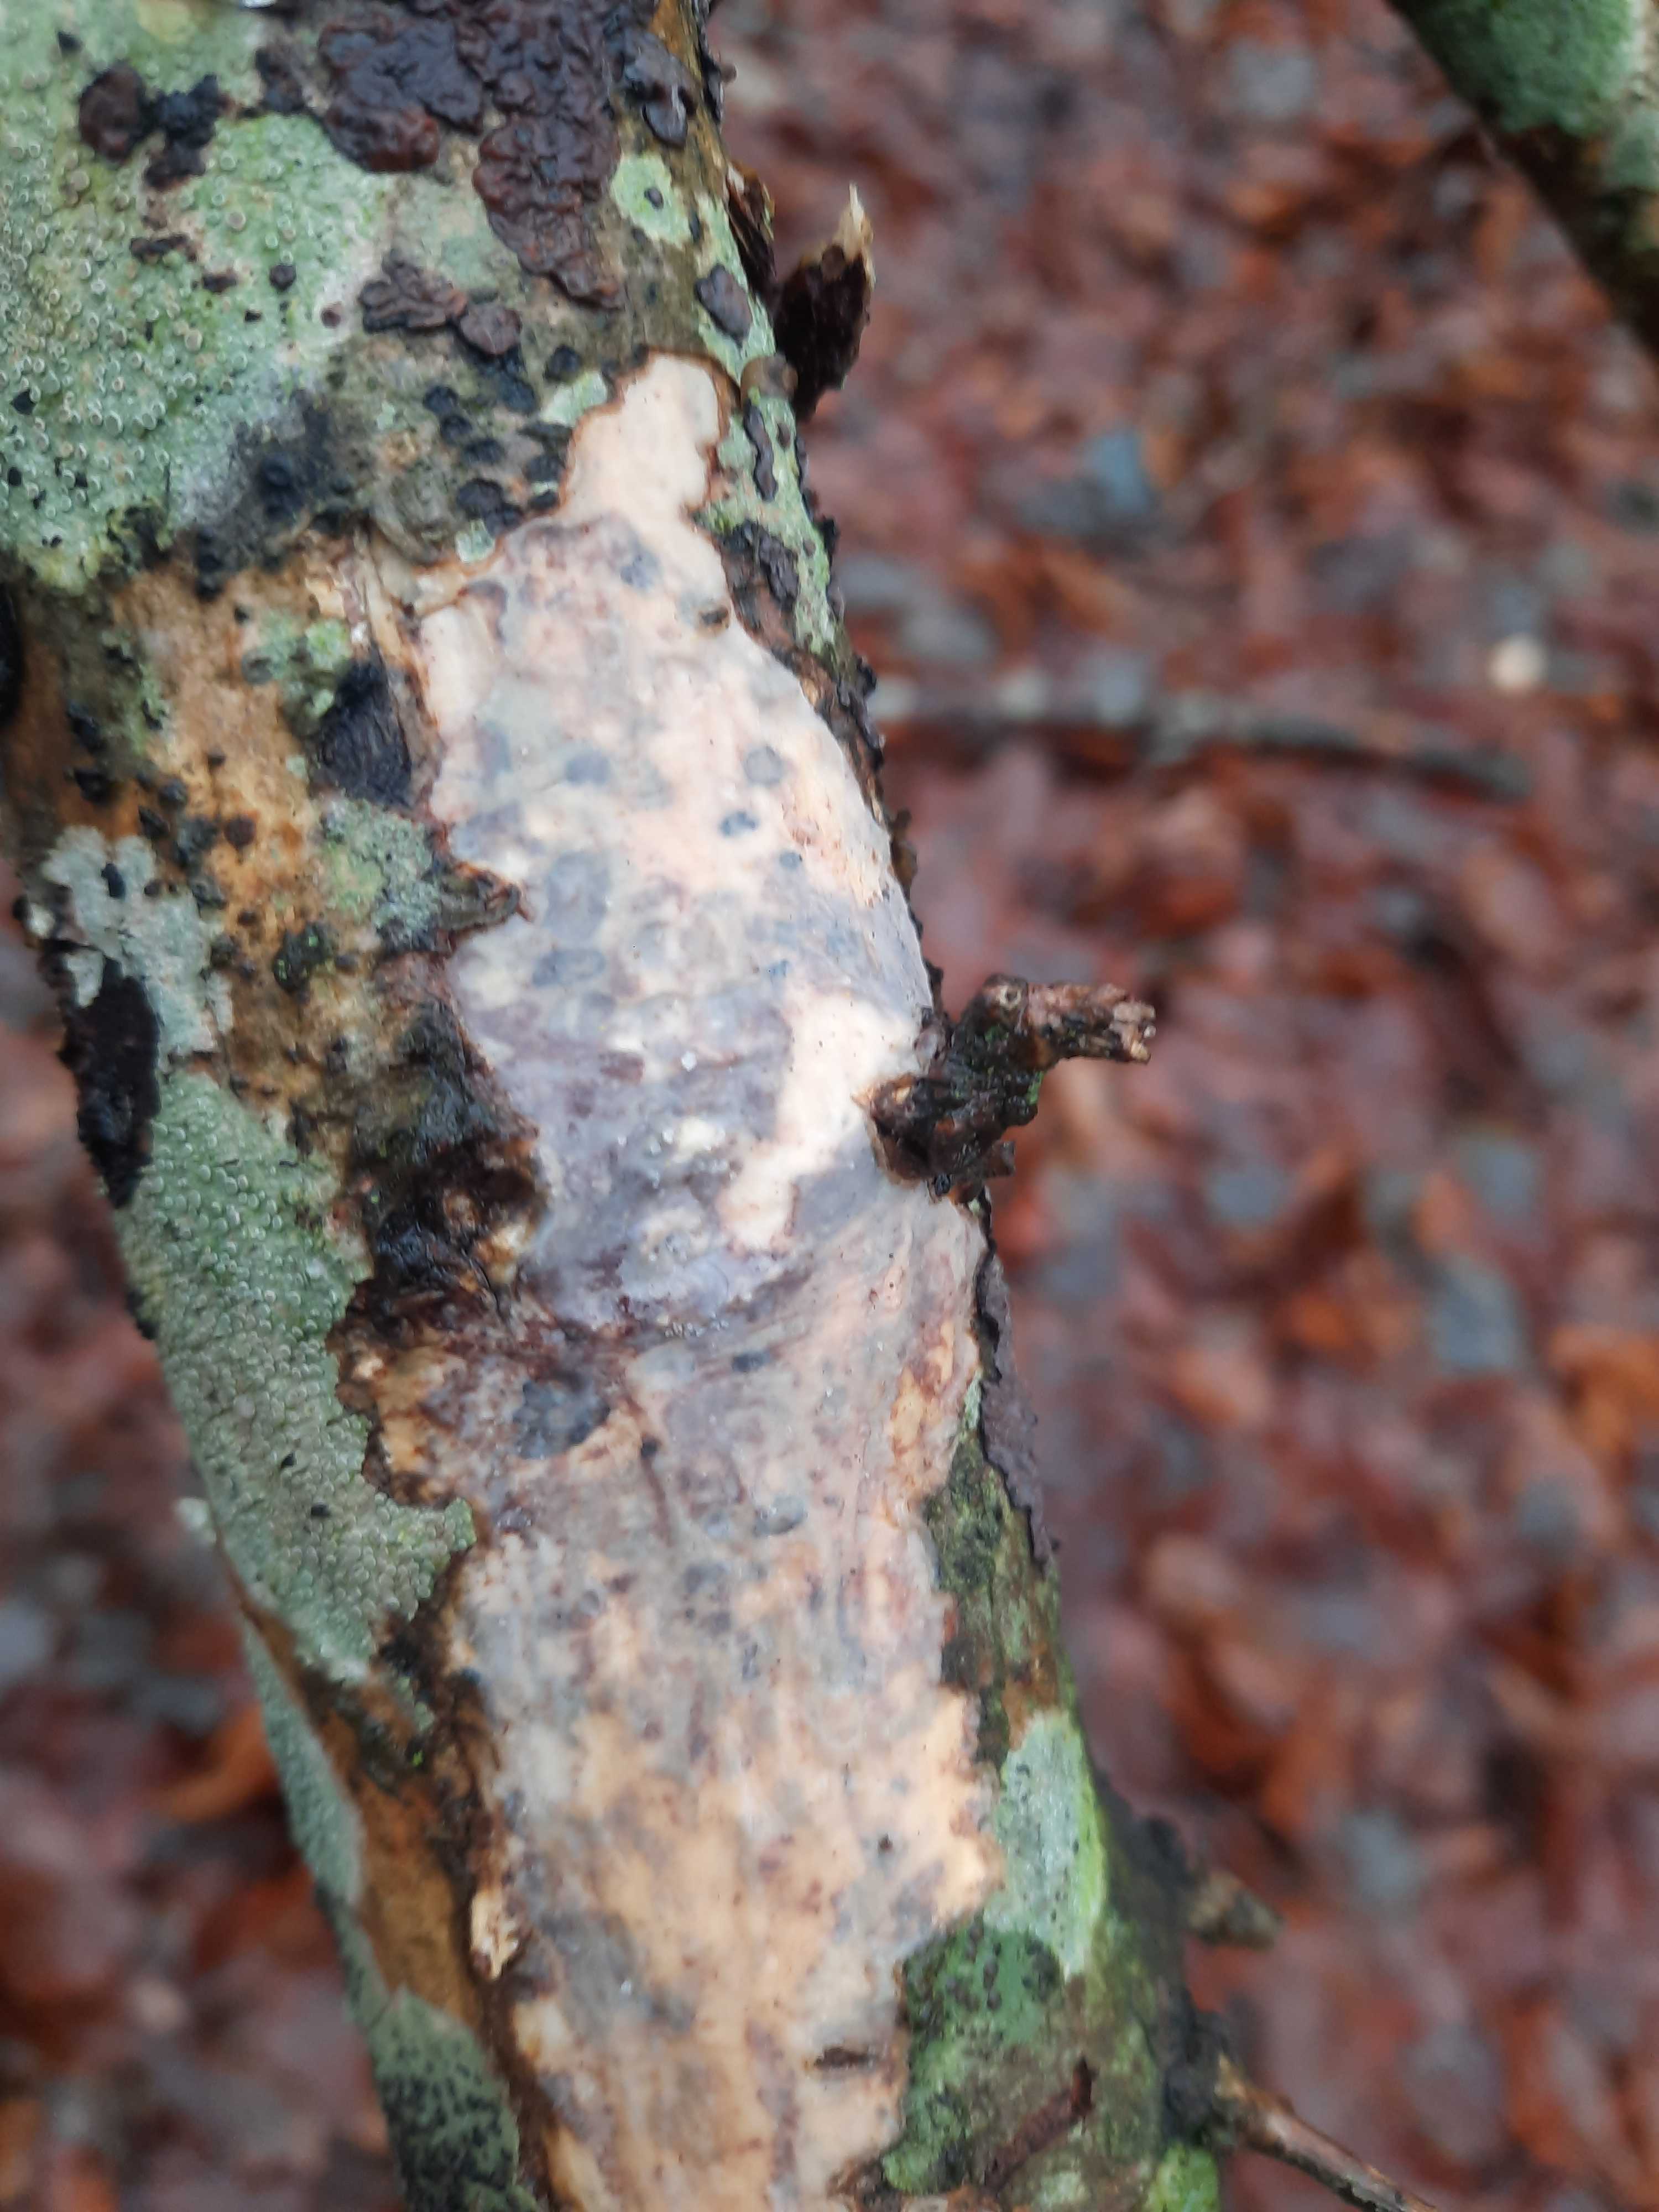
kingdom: Fungi
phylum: Basidiomycota
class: Agaricomycetes
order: Russulales
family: Peniophoraceae
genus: Peniophora
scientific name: Peniophora quercina
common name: ege-voksskind
